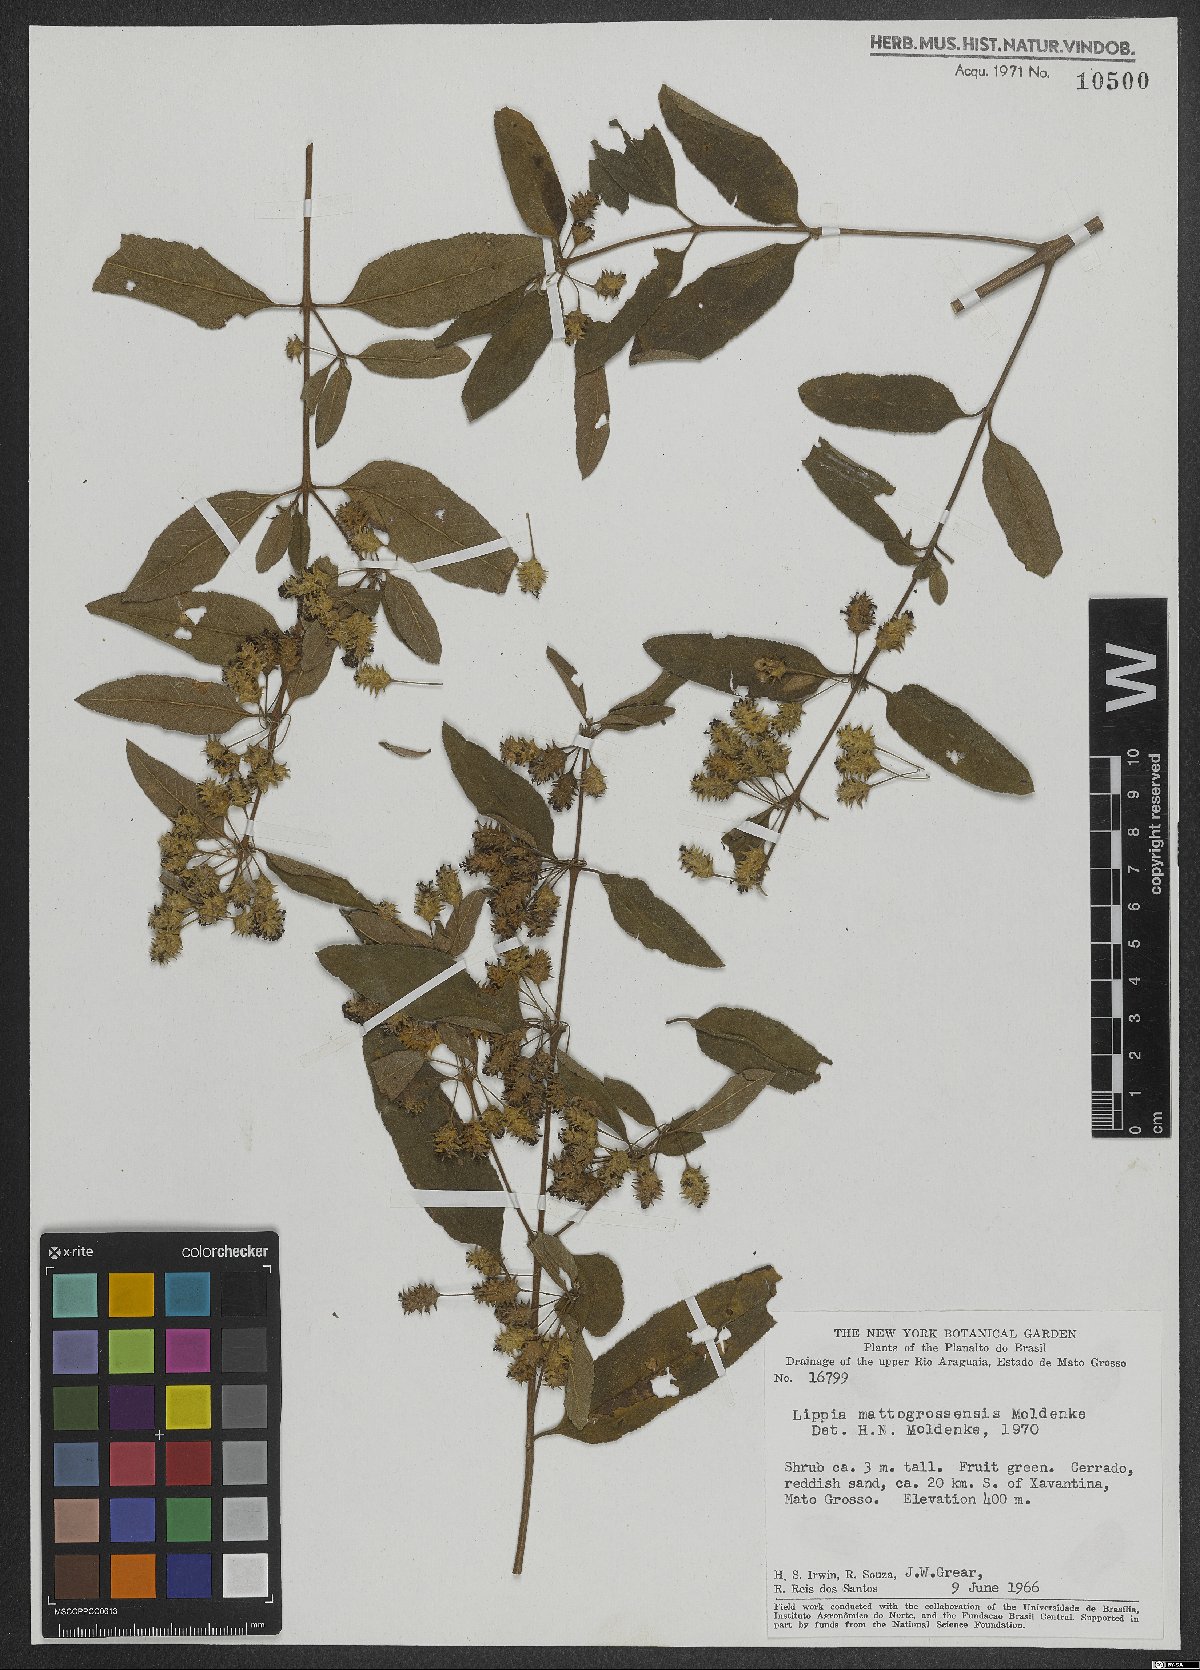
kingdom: Plantae
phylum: Tracheophyta
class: Magnoliopsida
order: Lamiales
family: Verbenaceae
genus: Lippia
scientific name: Lippia origanoides
